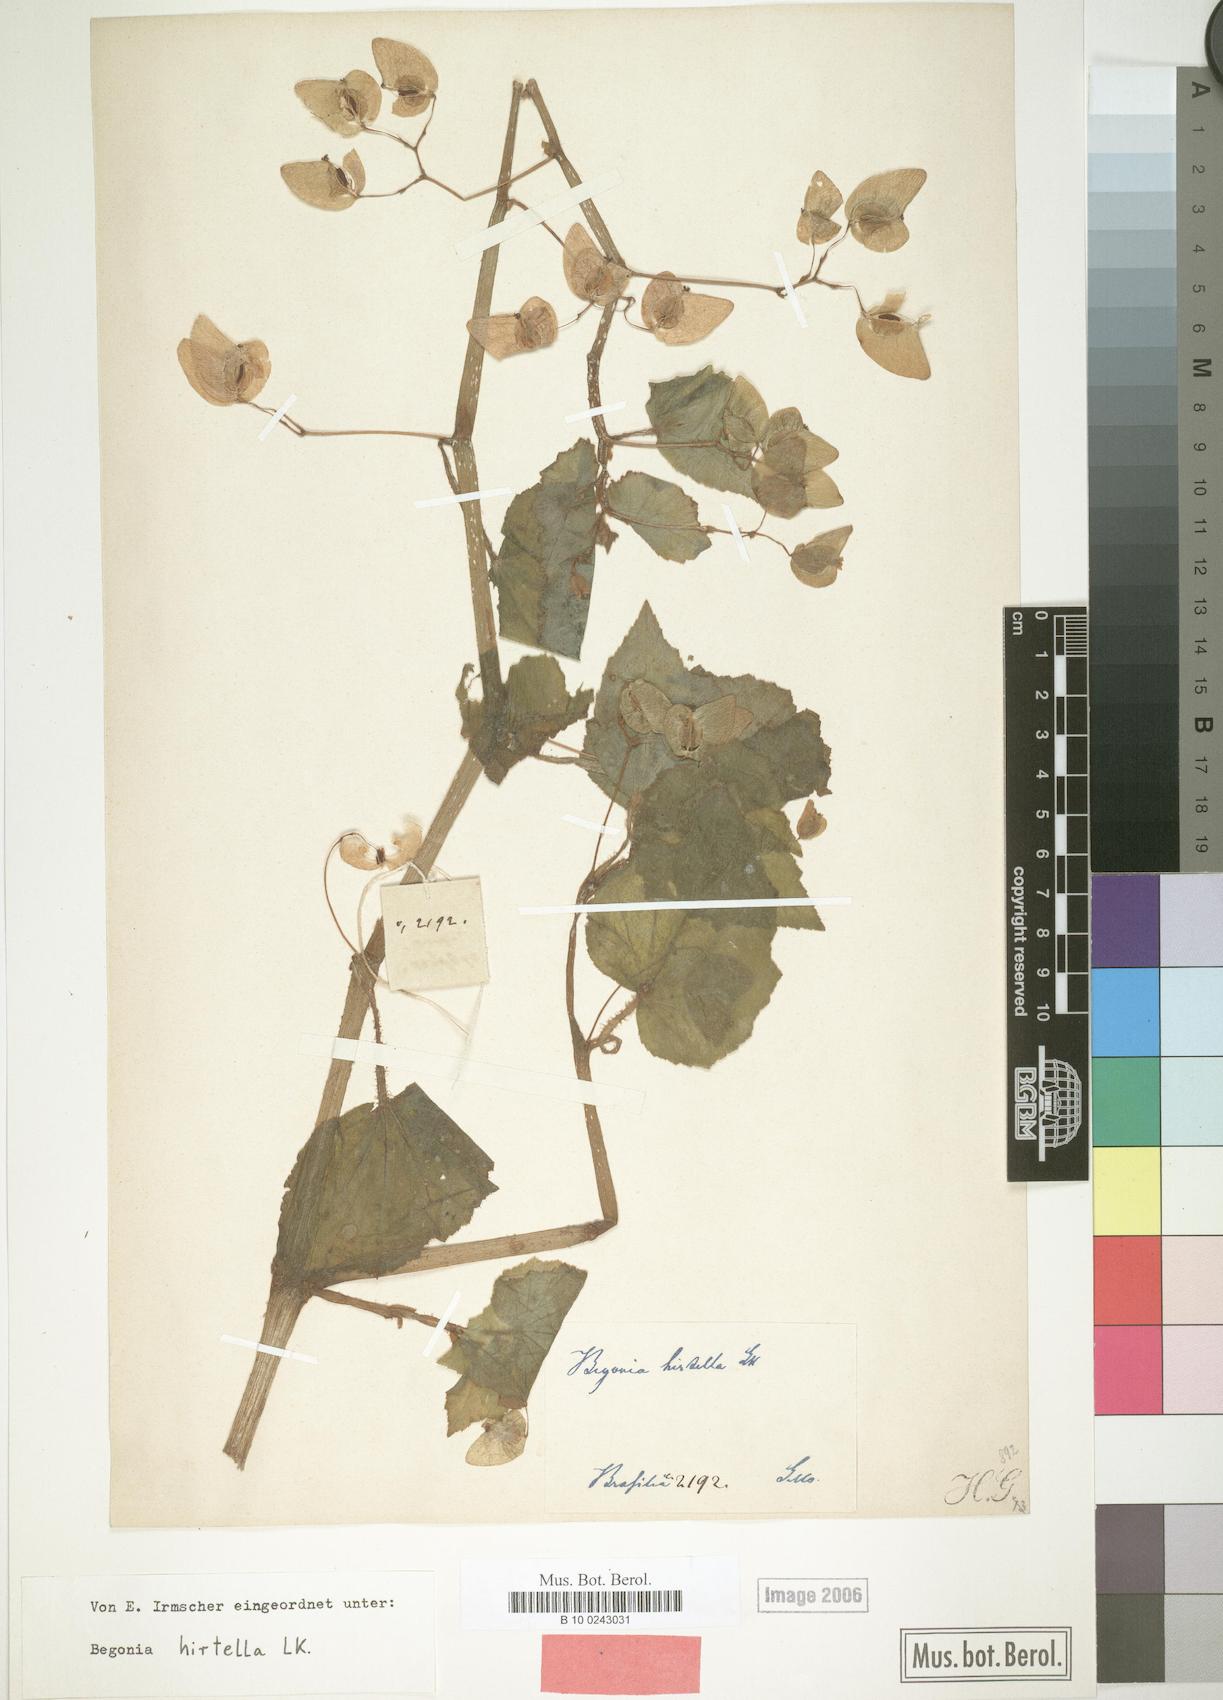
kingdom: Plantae
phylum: Tracheophyta
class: Magnoliopsida
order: Cucurbitales
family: Begoniaceae
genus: Begonia
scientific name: Begonia hirtella
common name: Brazilian begonia
